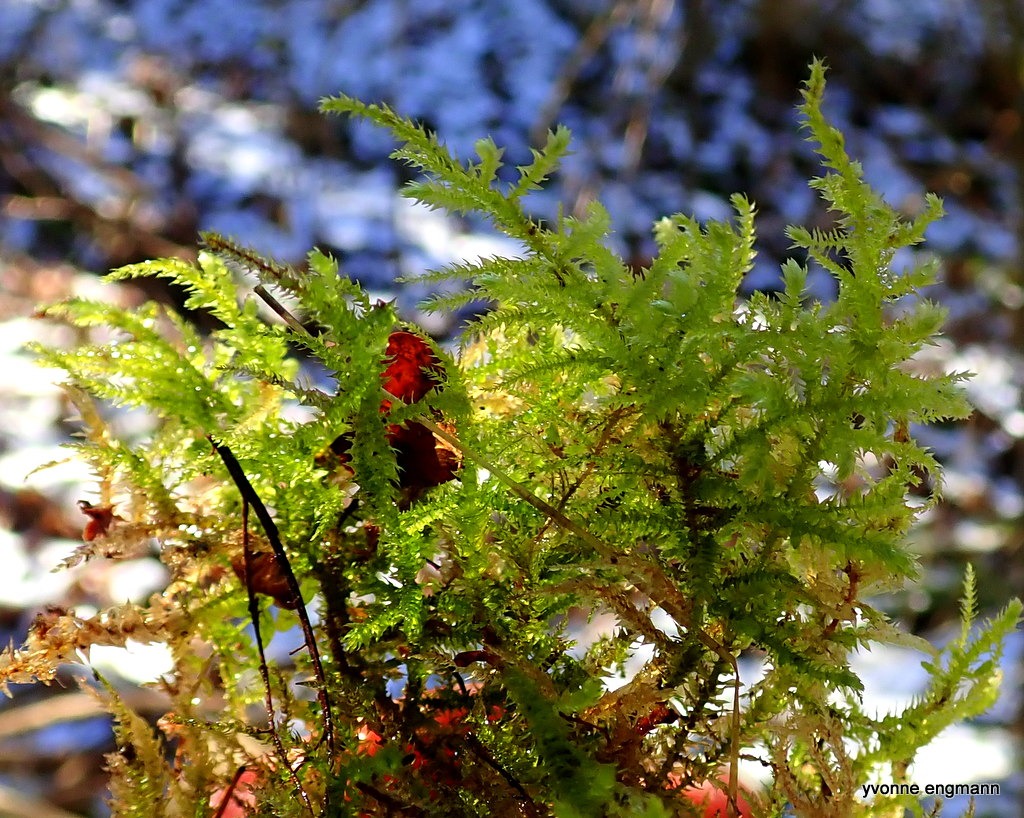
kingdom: Plantae
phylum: Bryophyta
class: Bryopsida
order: Hypnales
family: Brachytheciaceae
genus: Eurhynchium
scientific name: Eurhynchium striatum
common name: Stribet næbmos
